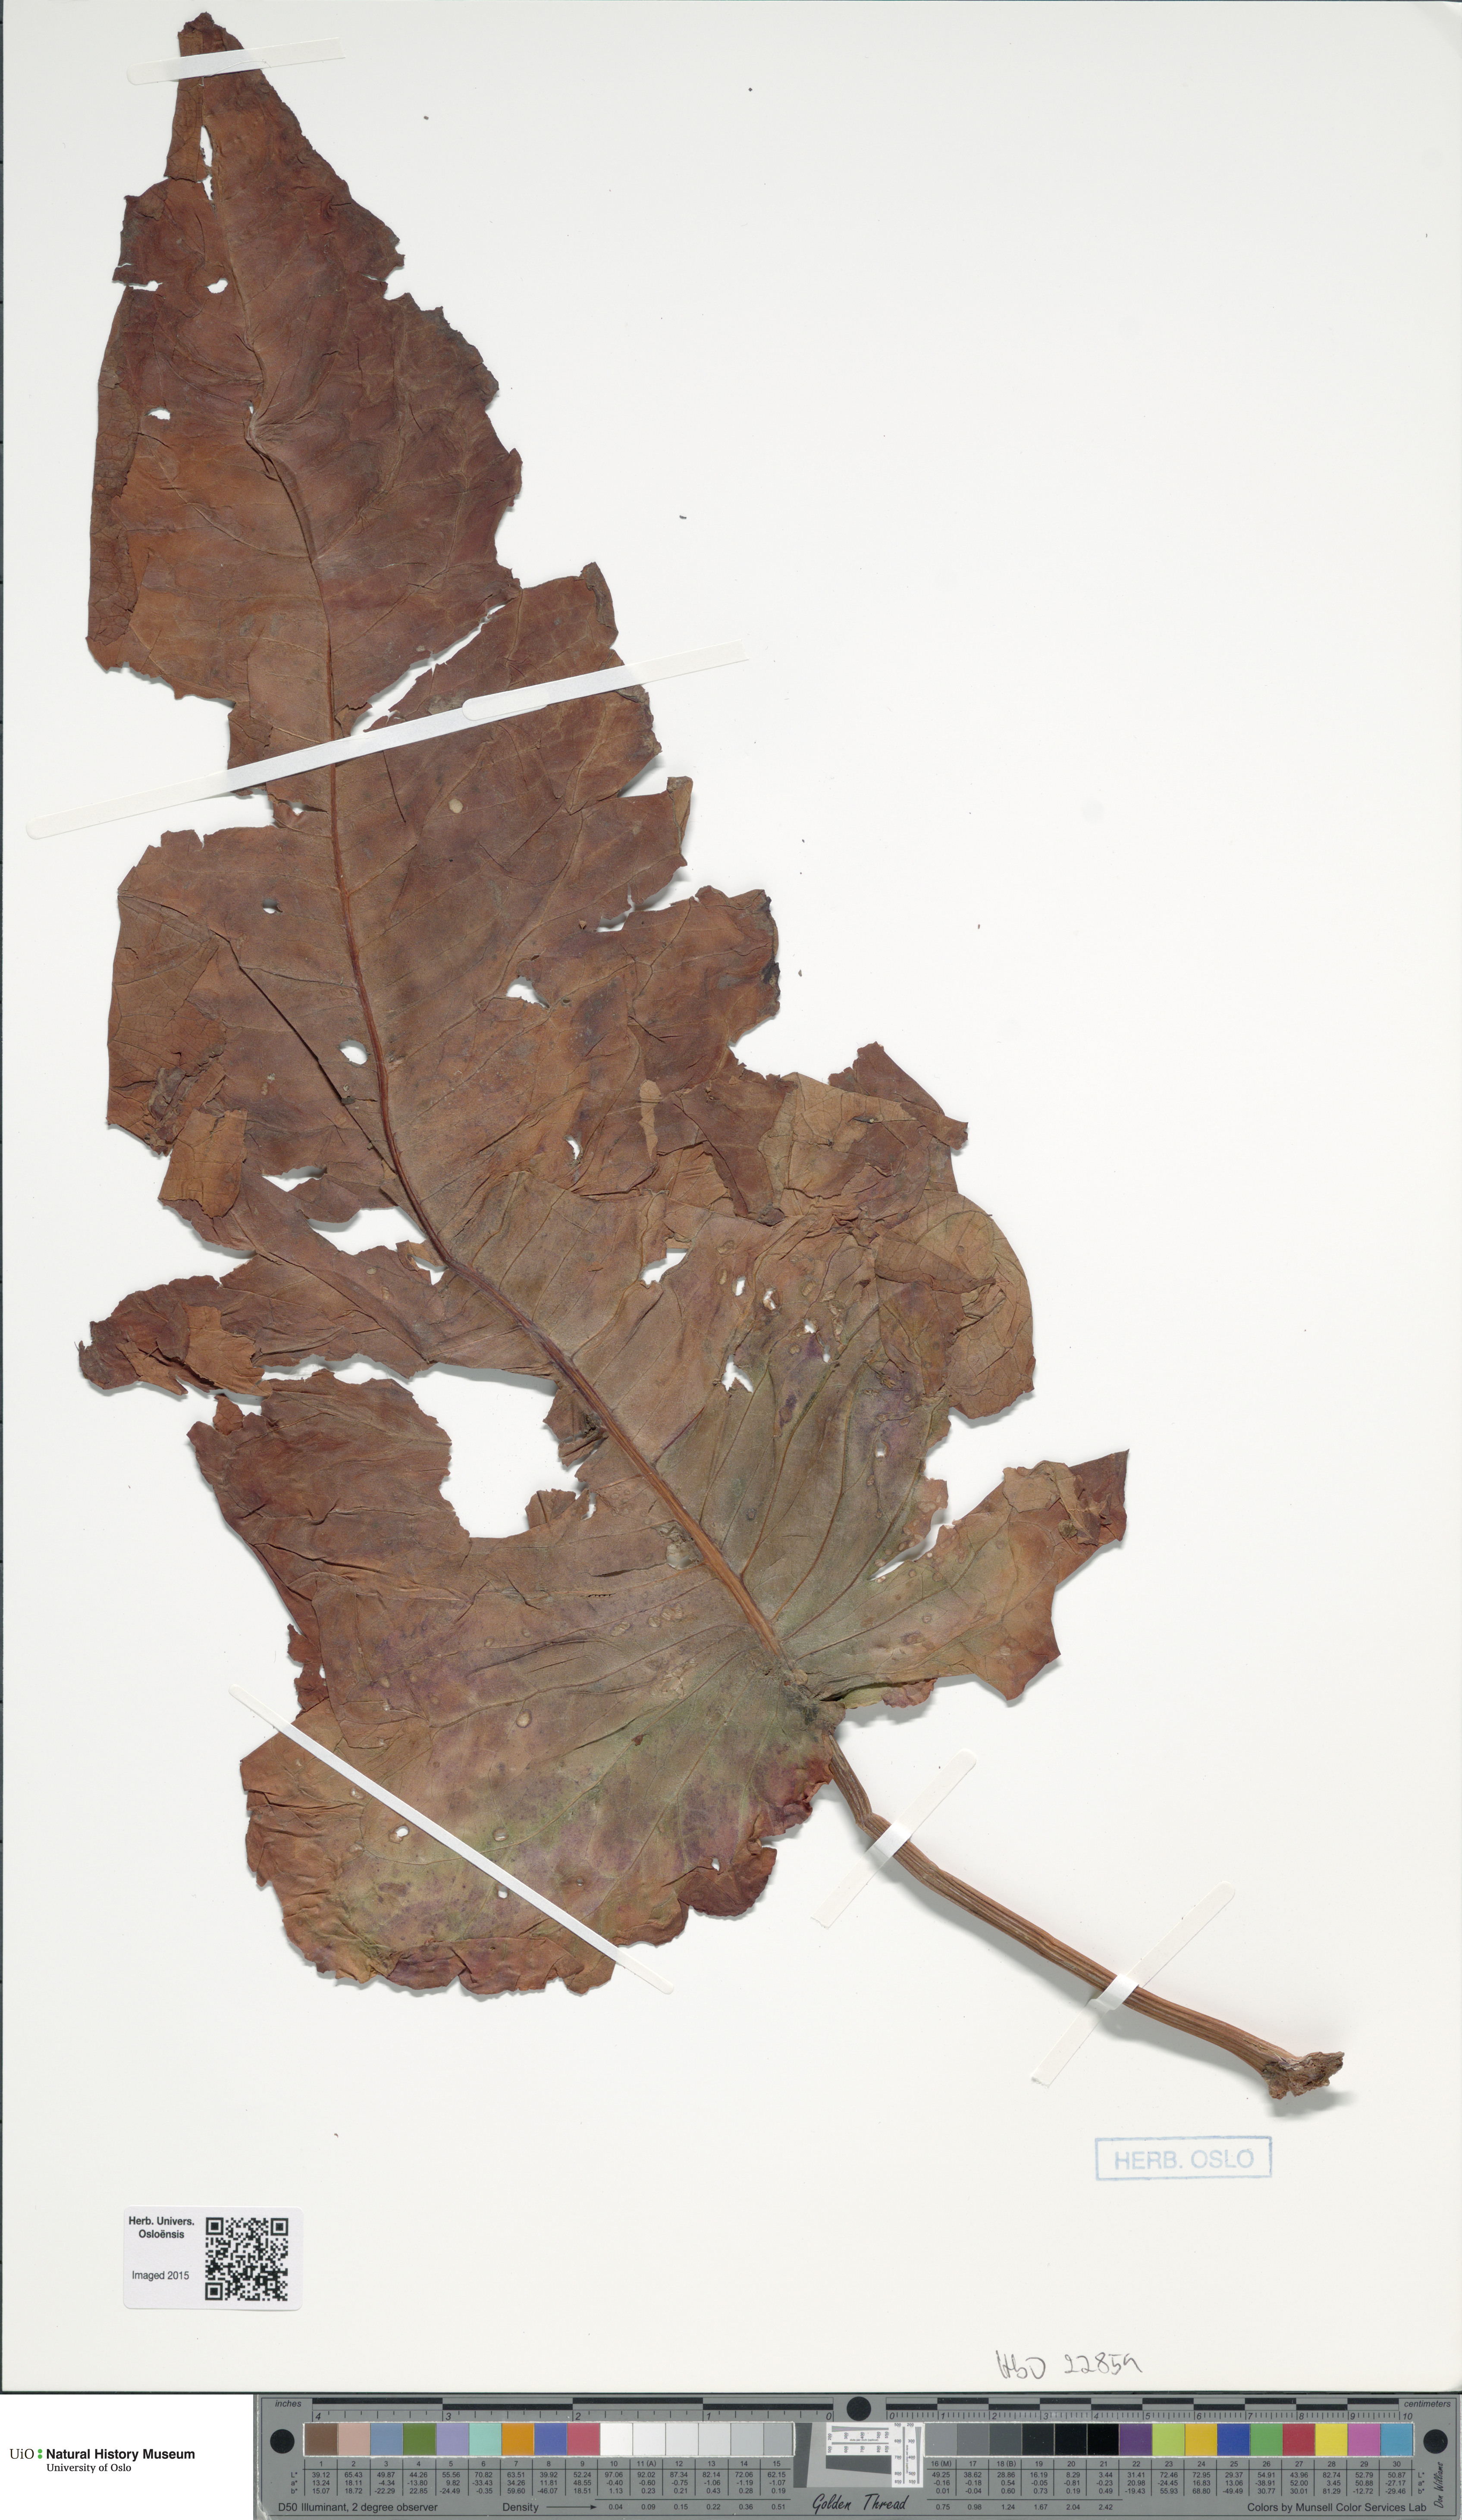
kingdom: Plantae
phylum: Tracheophyta
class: Magnoliopsida
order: Caryophyllales
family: Polygonaceae
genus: Rumex
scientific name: Rumex aquaticus
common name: Scottish dock
